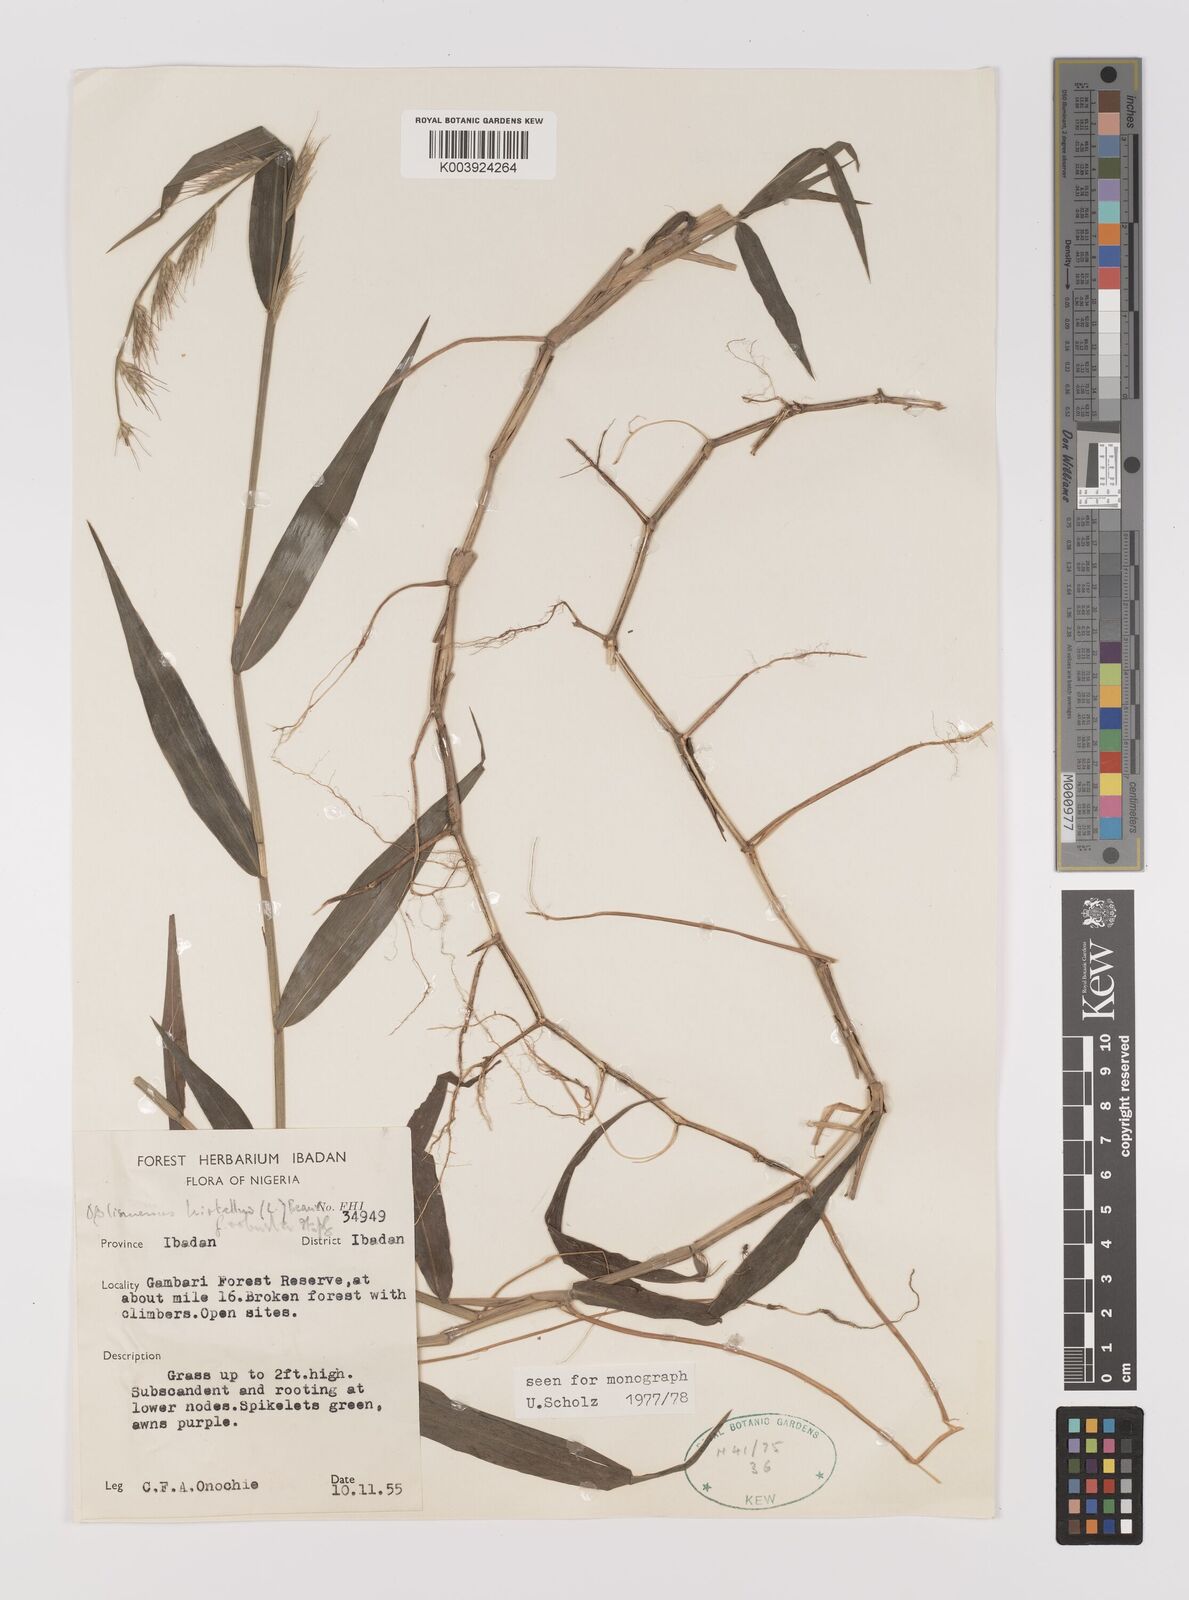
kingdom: Plantae
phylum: Tracheophyta
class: Liliopsida
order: Poales
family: Poaceae
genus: Oplismenus
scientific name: Oplismenus hirtellus
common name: Basketgrass
